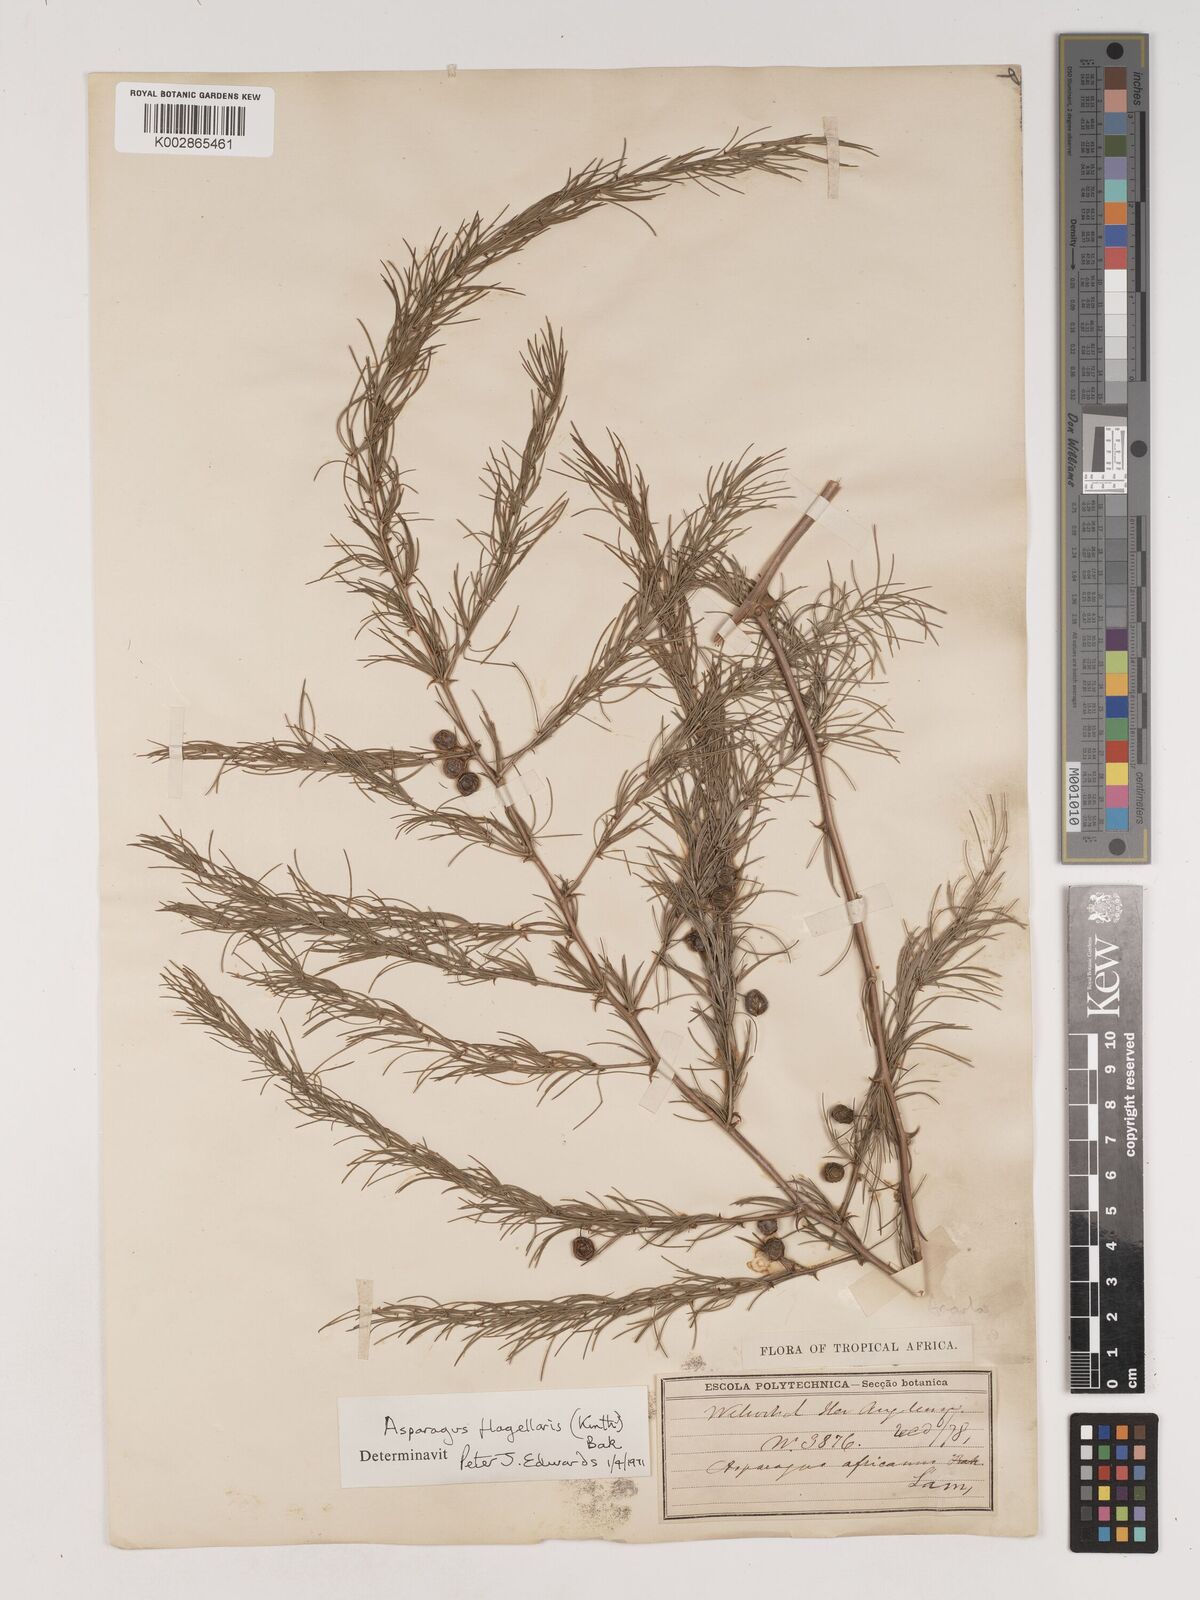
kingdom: Plantae
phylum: Tracheophyta
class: Liliopsida
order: Asparagales
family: Asparagaceae
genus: Asparagus
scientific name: Asparagus flagellaris
